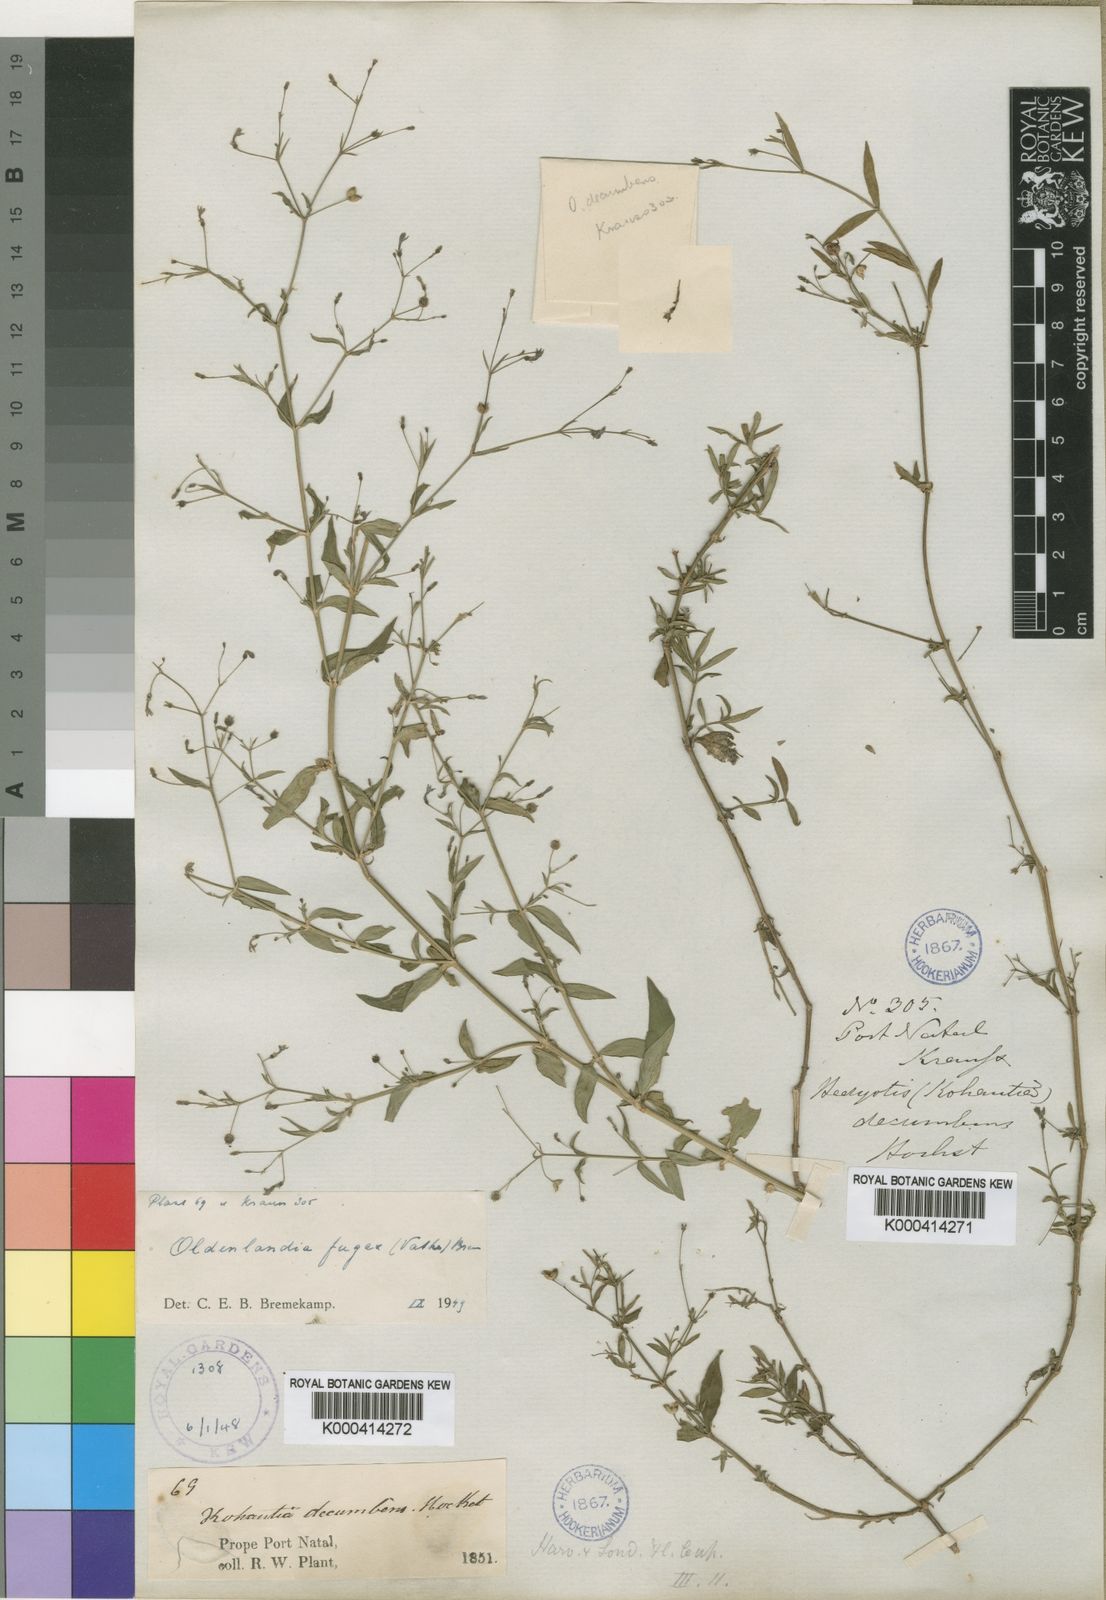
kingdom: Plantae
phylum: Tracheophyta
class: Magnoliopsida
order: Gentianales
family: Rubiaceae
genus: Oldenlandia
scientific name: Oldenlandia affinis
